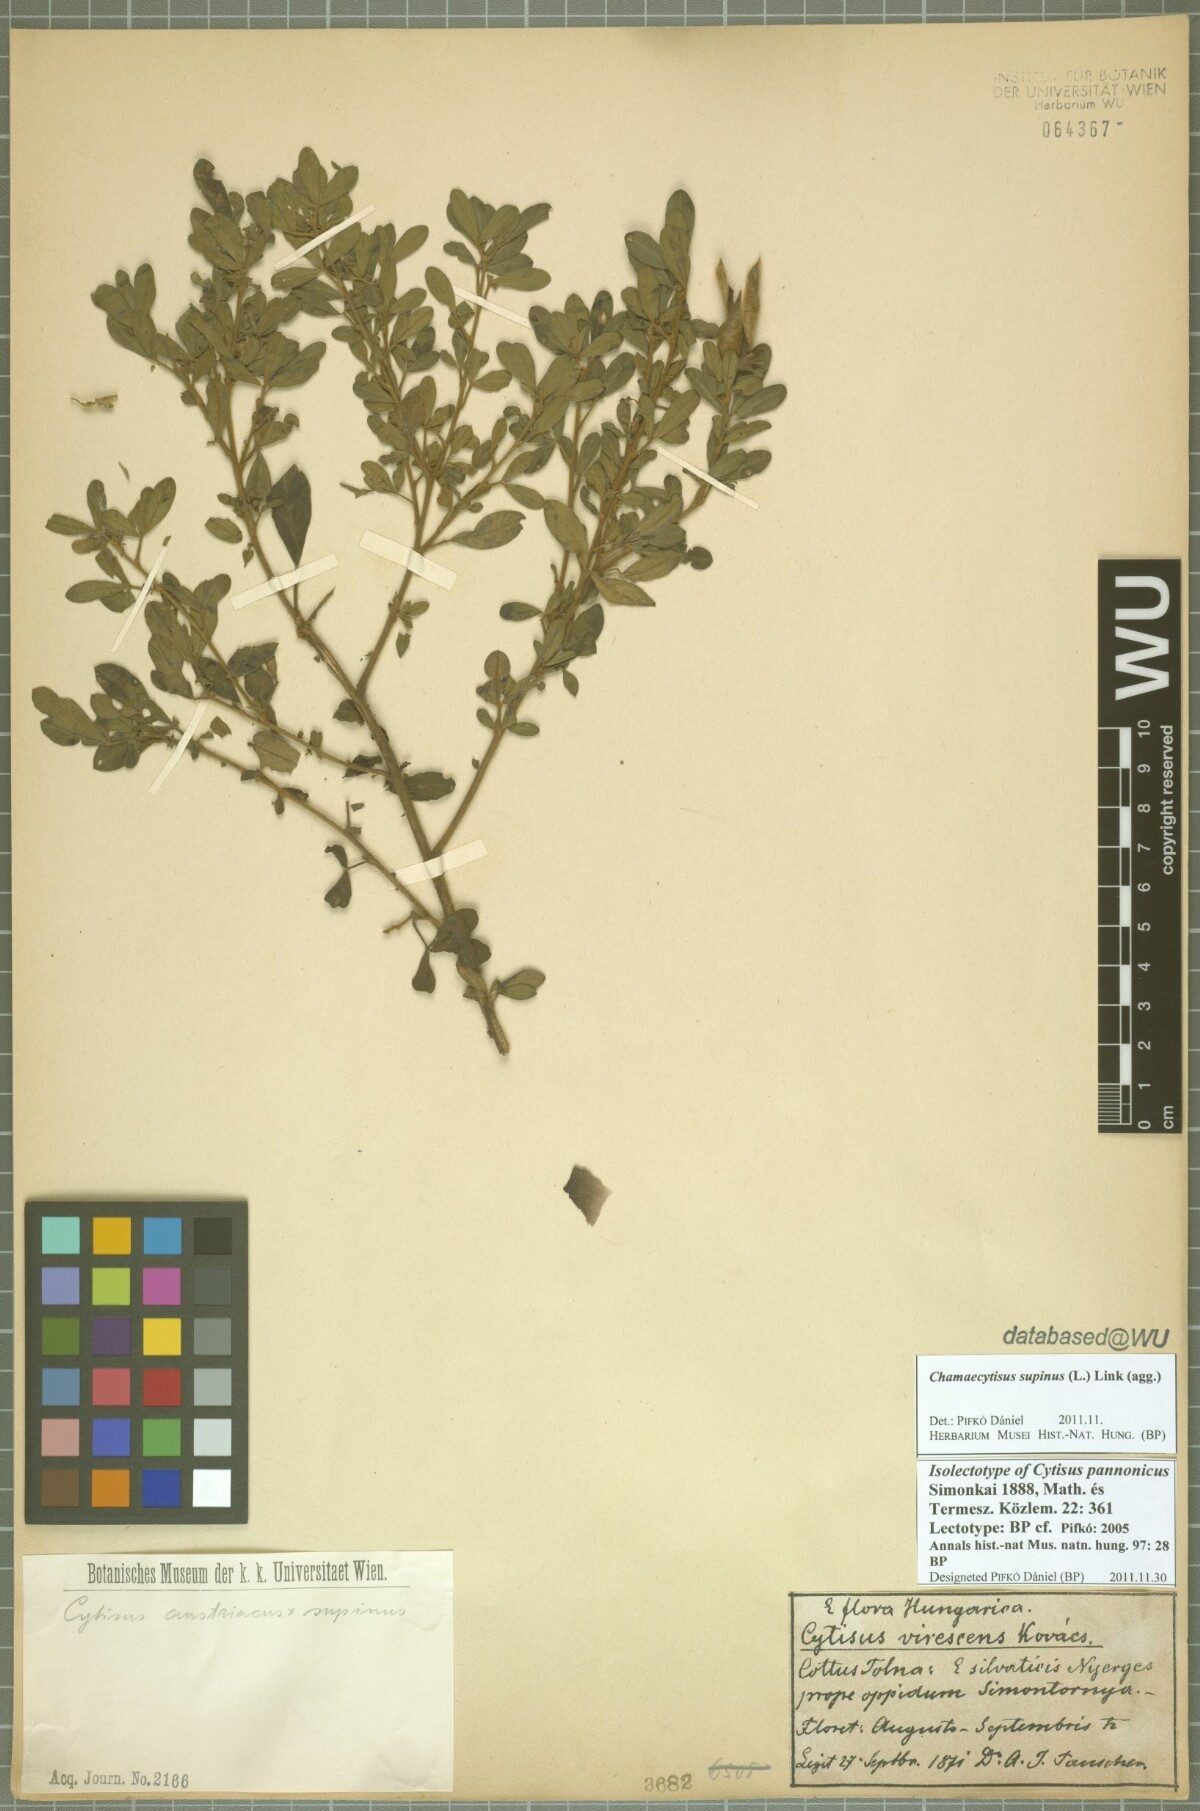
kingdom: Plantae
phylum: Tracheophyta
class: Magnoliopsida
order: Fabales
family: Fabaceae
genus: Chamaecytisus
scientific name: Chamaecytisus supinus
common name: Clustered broom
